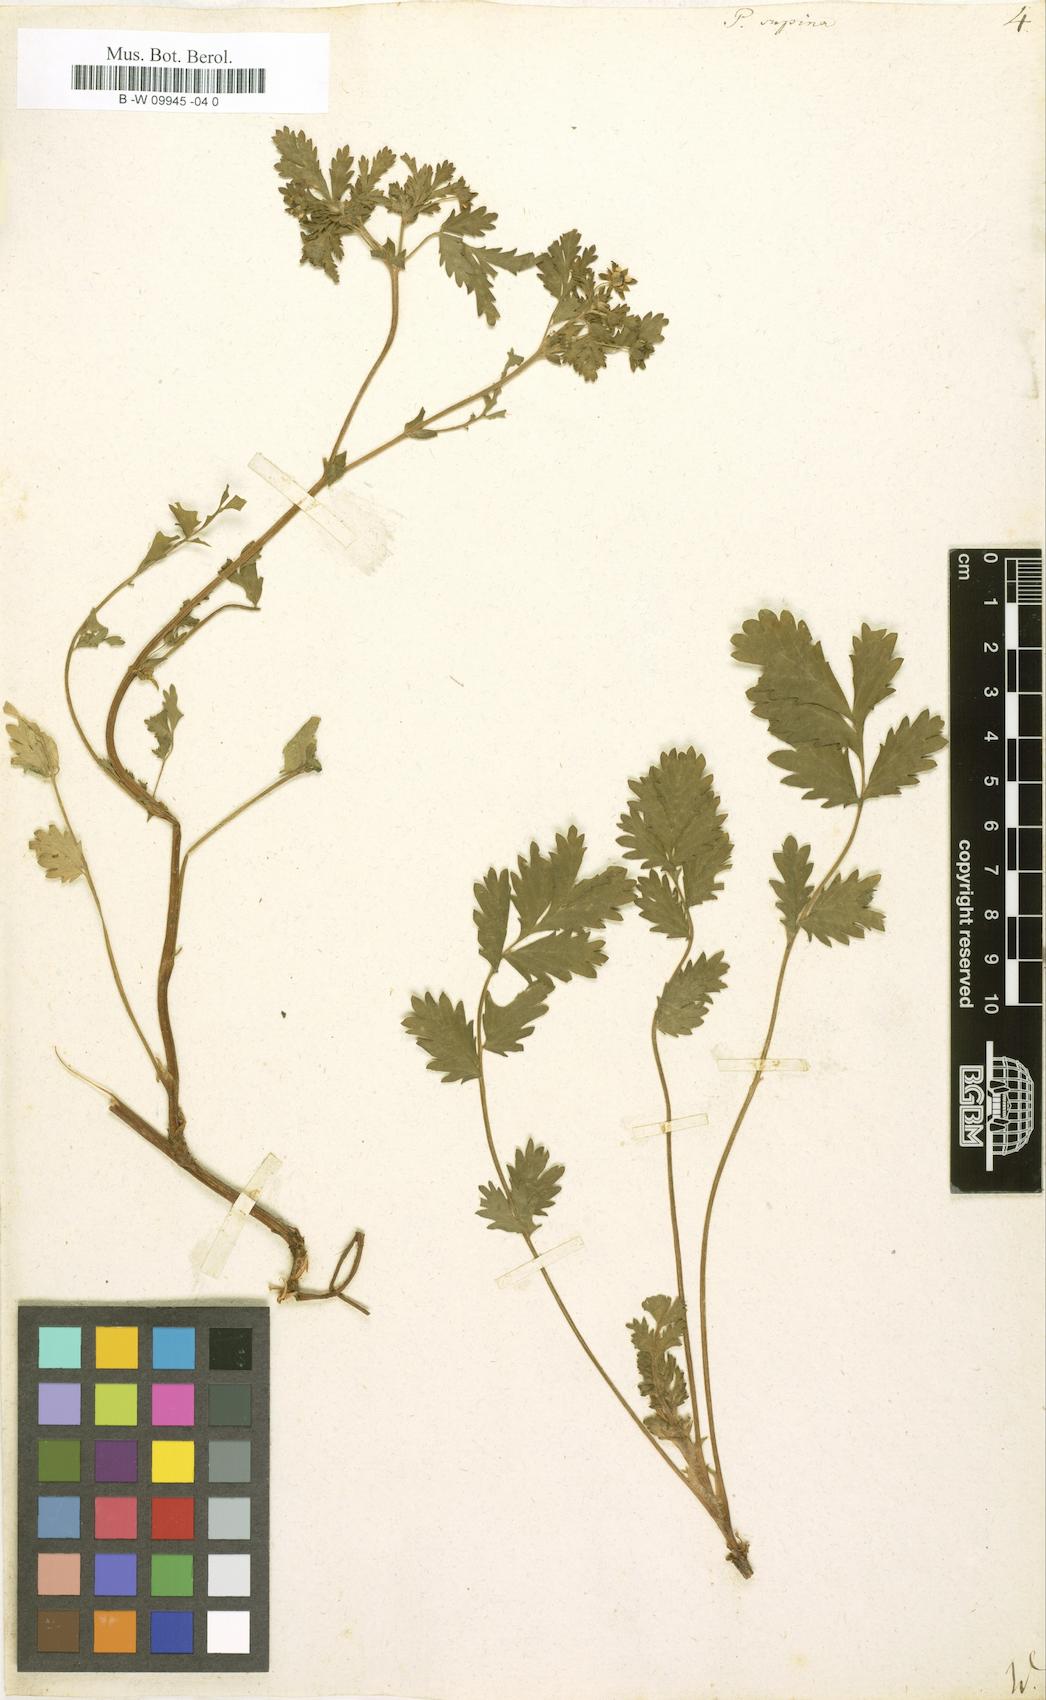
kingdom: Plantae
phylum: Tracheophyta
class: Magnoliopsida
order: Rosales
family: Rosaceae
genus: Potentilla
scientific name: Potentilla supina
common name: Prostrate cinquefoil
